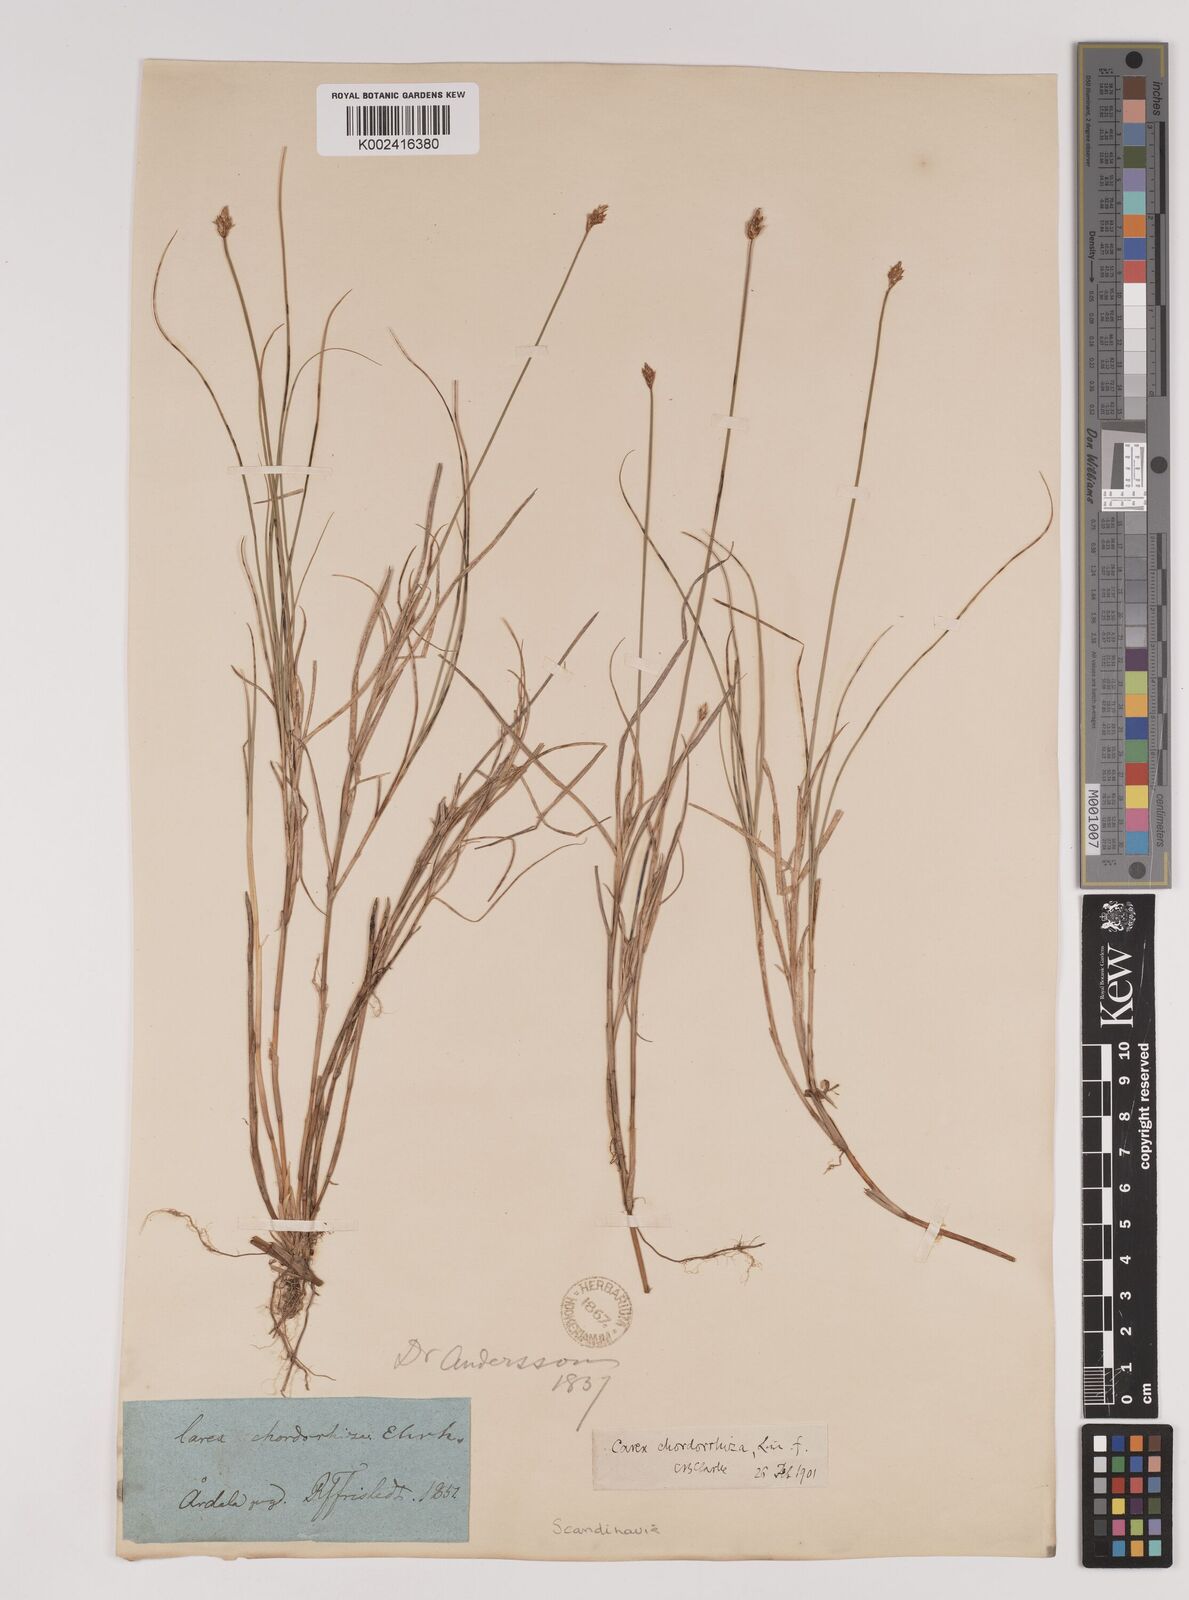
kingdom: Plantae
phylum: Tracheophyta
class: Liliopsida
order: Poales
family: Cyperaceae
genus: Carex
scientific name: Carex chordorrhiza
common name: String sedge
